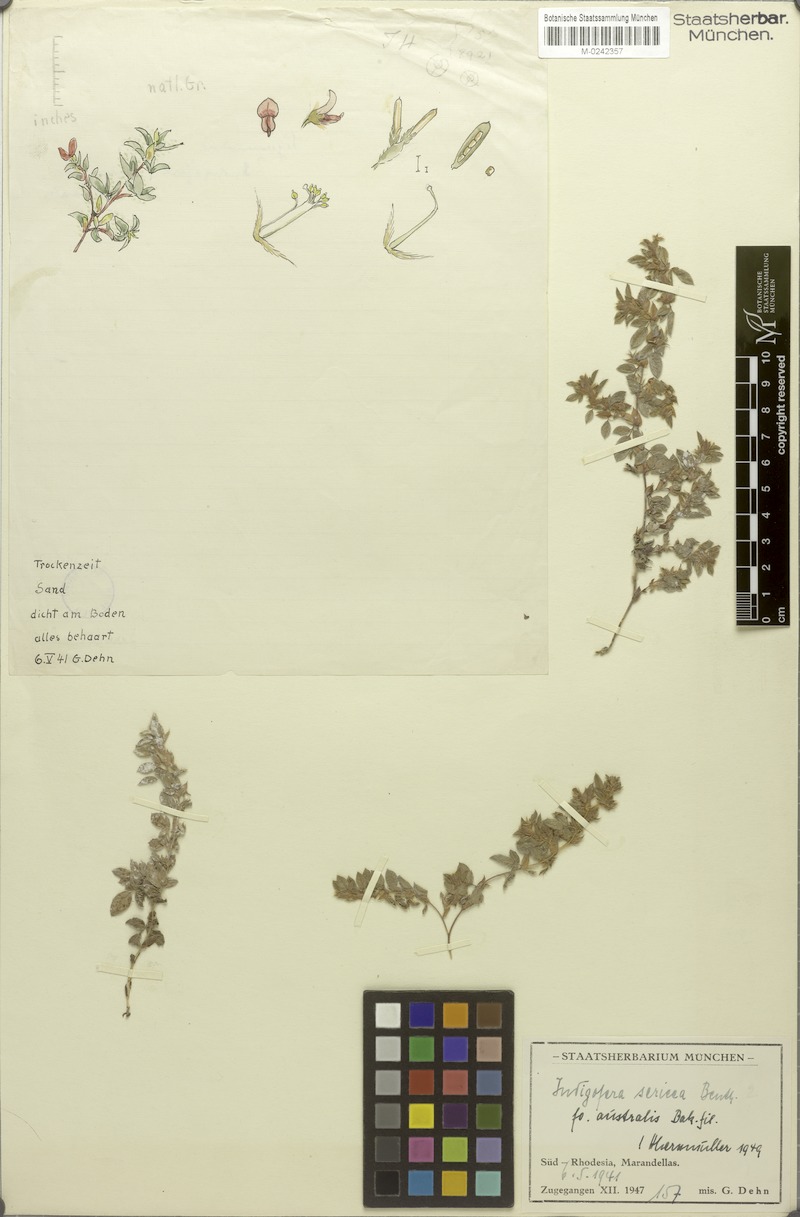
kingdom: Plantae
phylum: Tracheophyta
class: Magnoliopsida
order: Fabales
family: Fabaceae
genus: Indigofera
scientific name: Indigofera eylesiana
